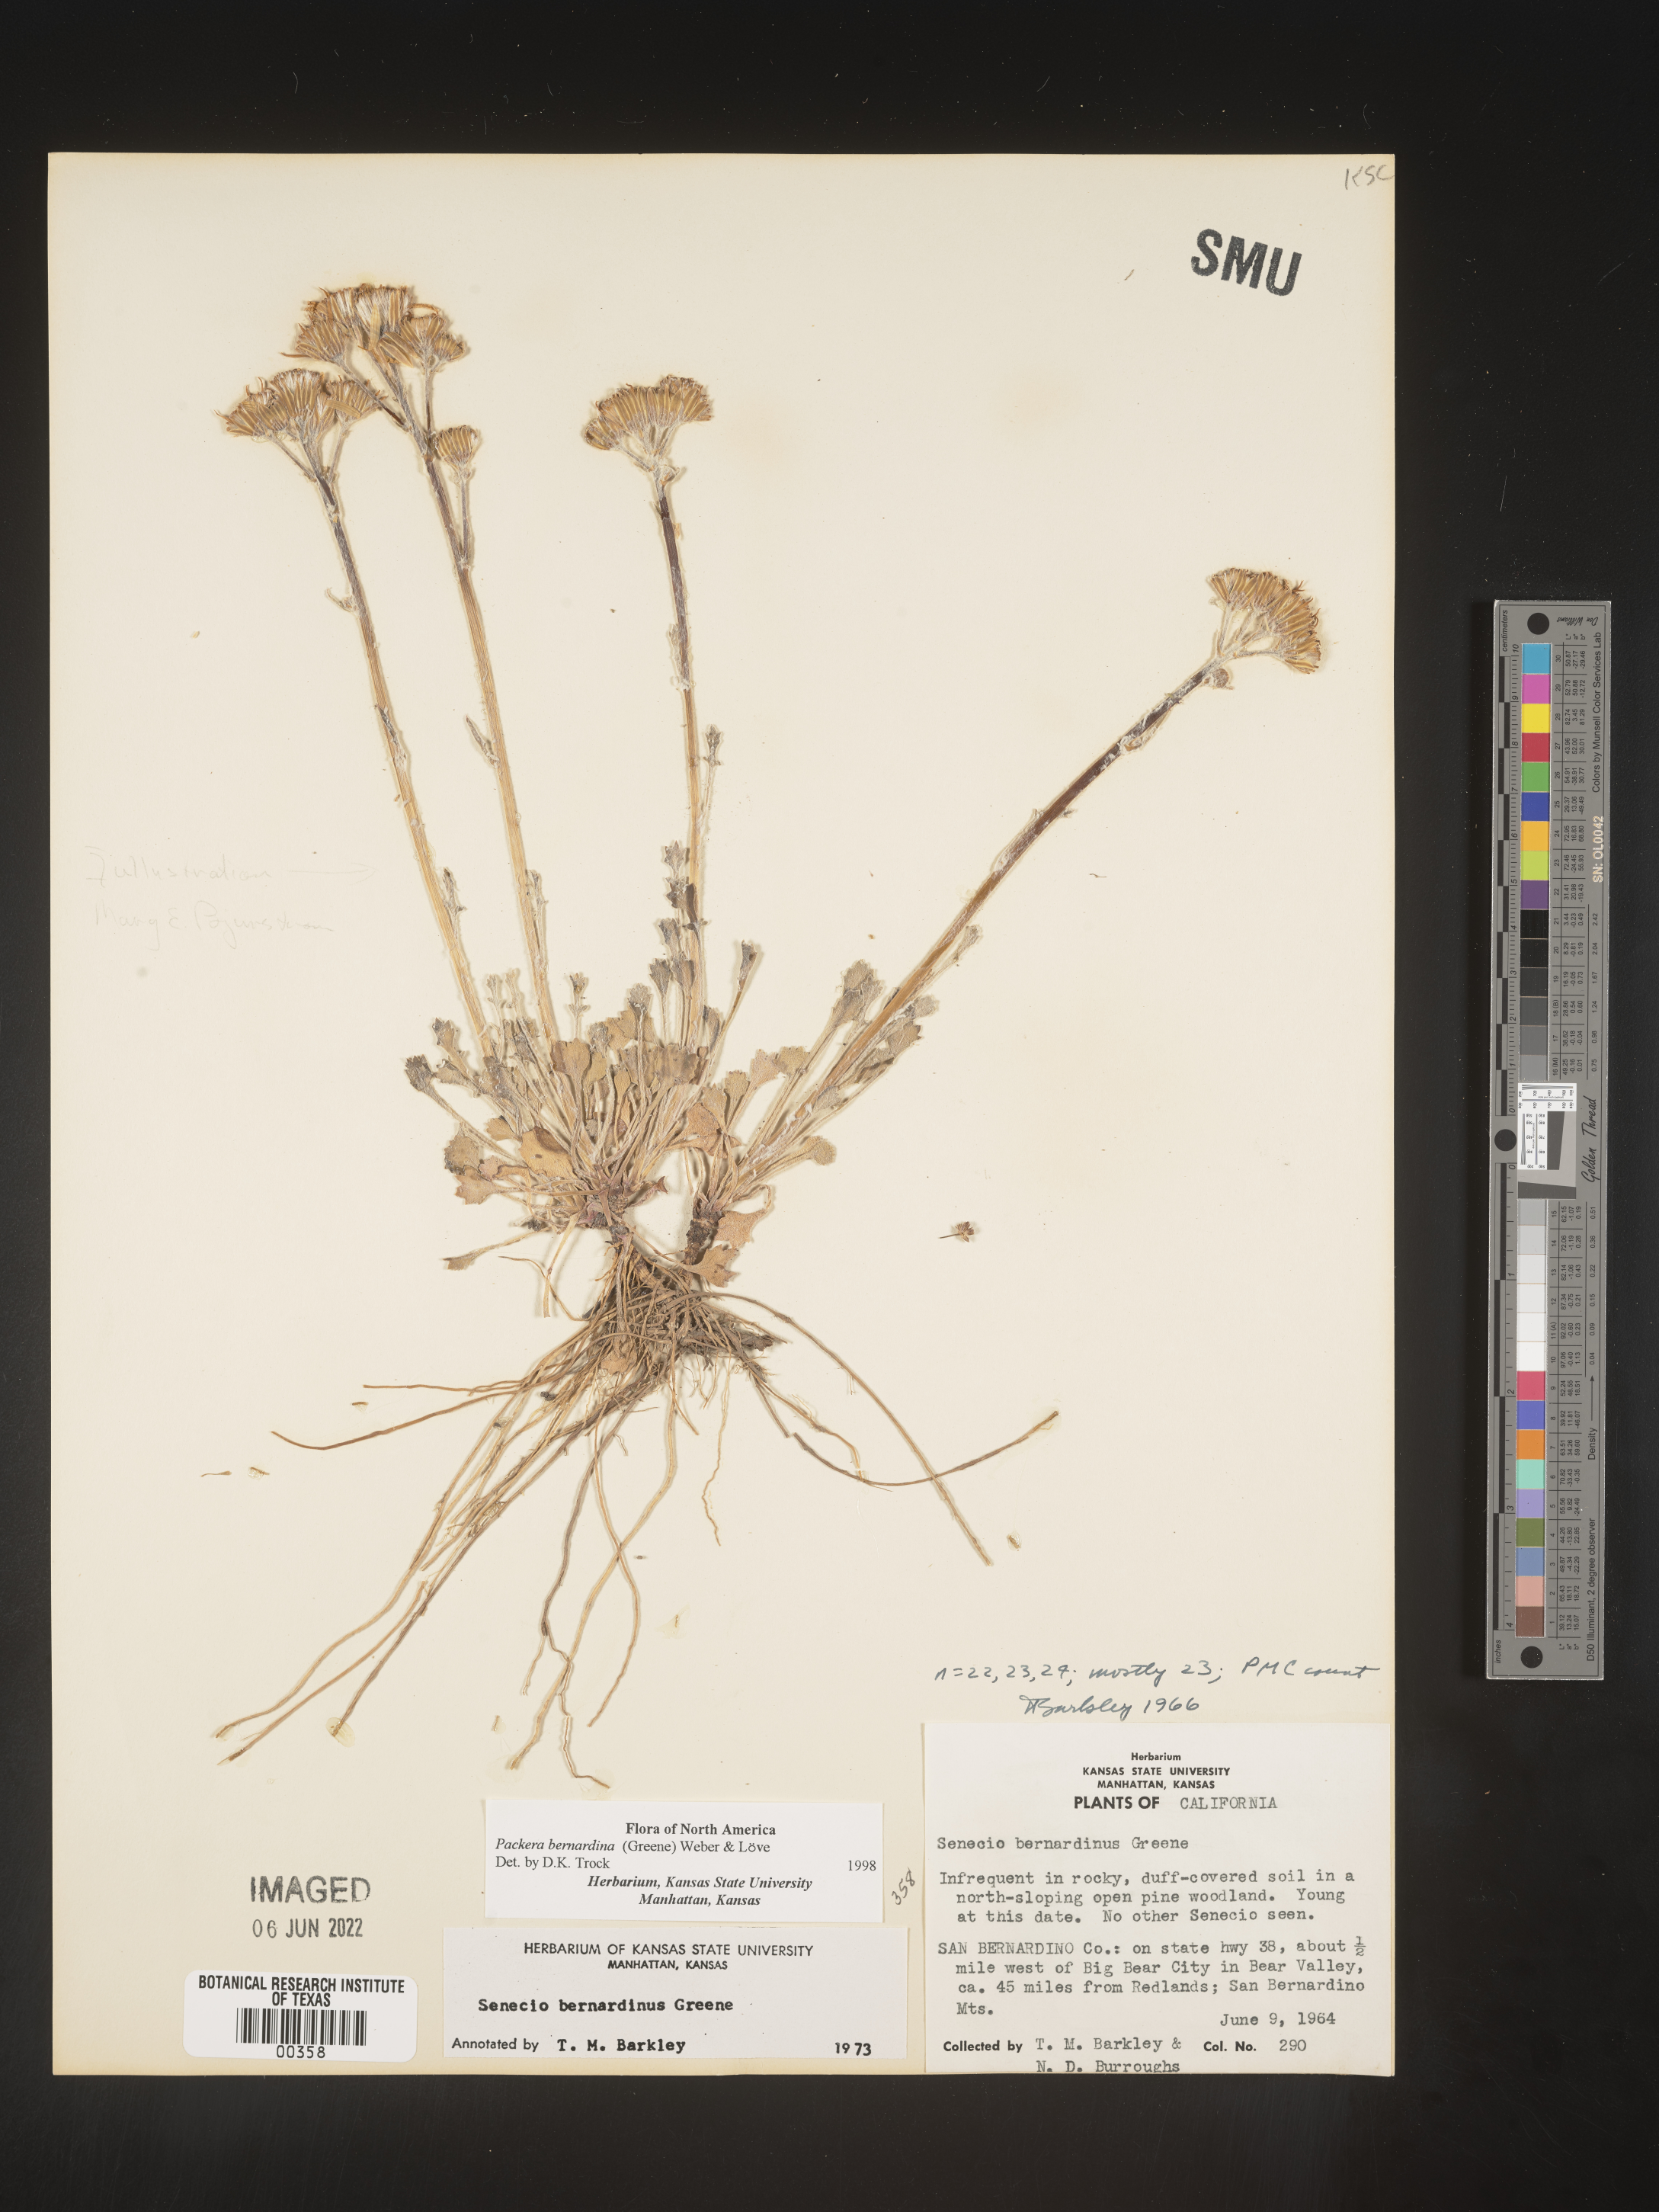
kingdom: Plantae
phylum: Tracheophyta
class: Magnoliopsida
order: Asterales
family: Asteraceae
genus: Packera
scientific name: Packera bernardina
